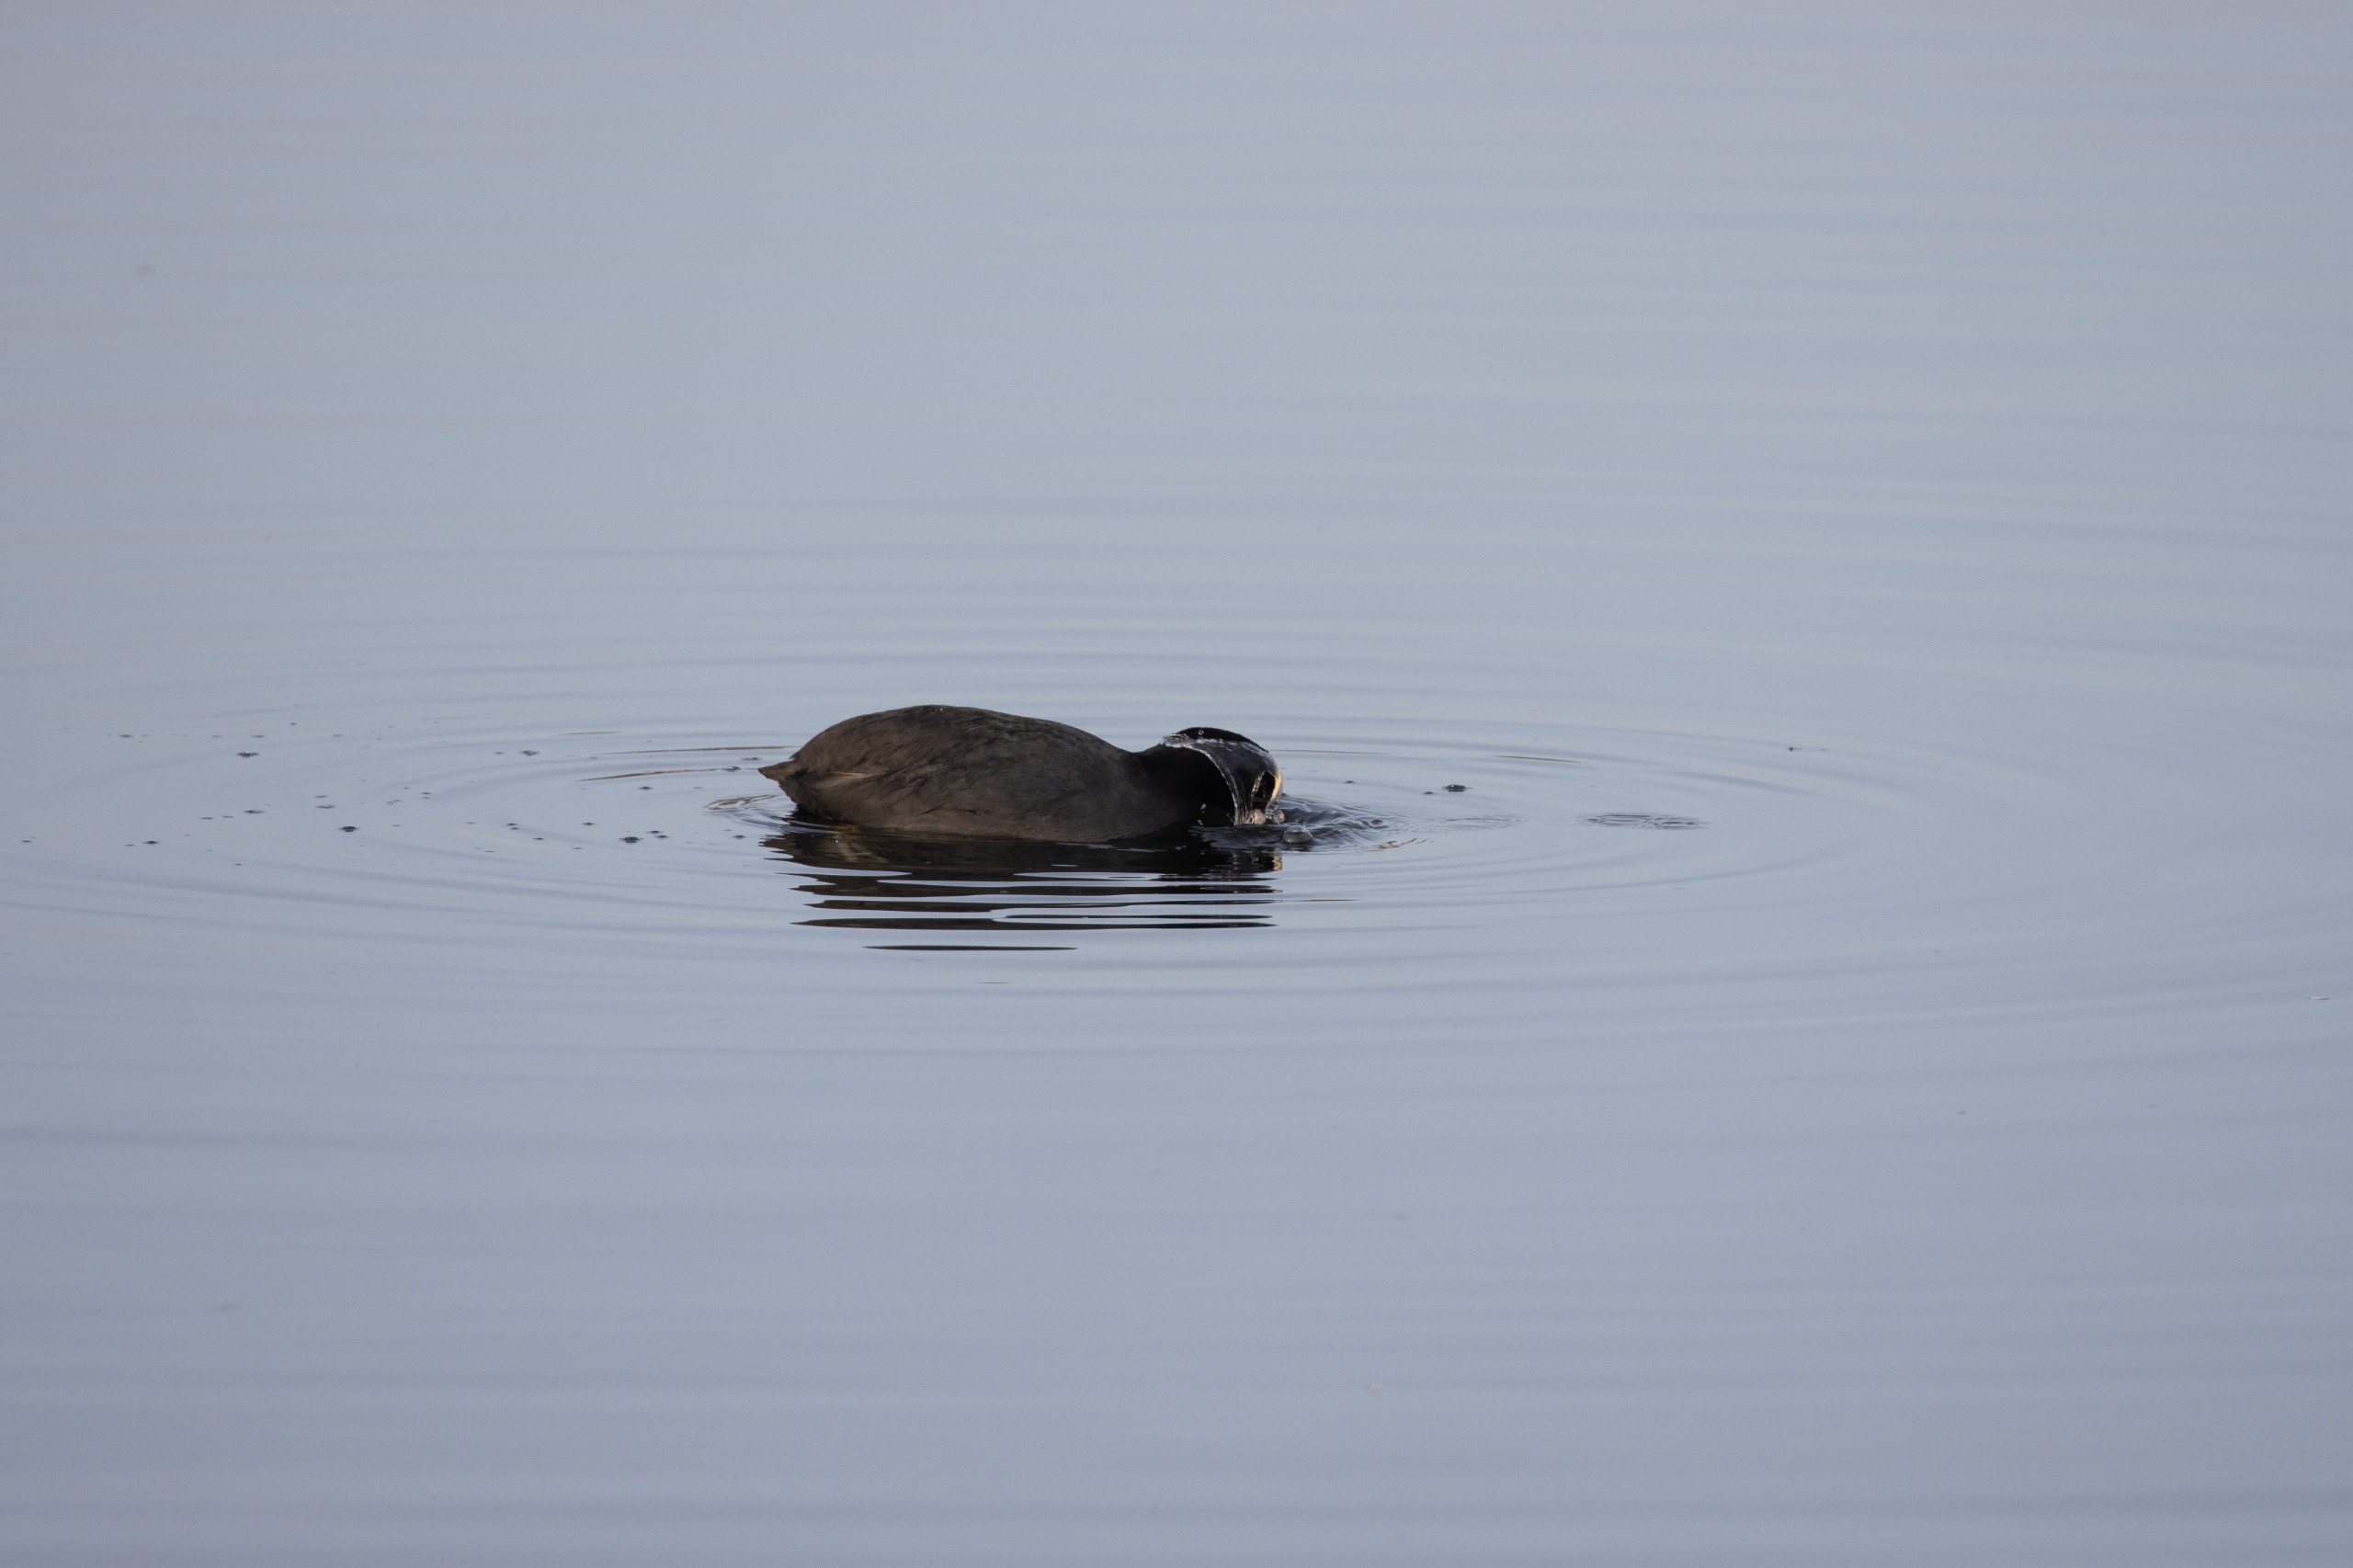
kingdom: Animalia
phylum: Chordata
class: Aves
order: Gruiformes
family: Rallidae
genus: Fulica
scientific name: Fulica atra
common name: Blishøne
